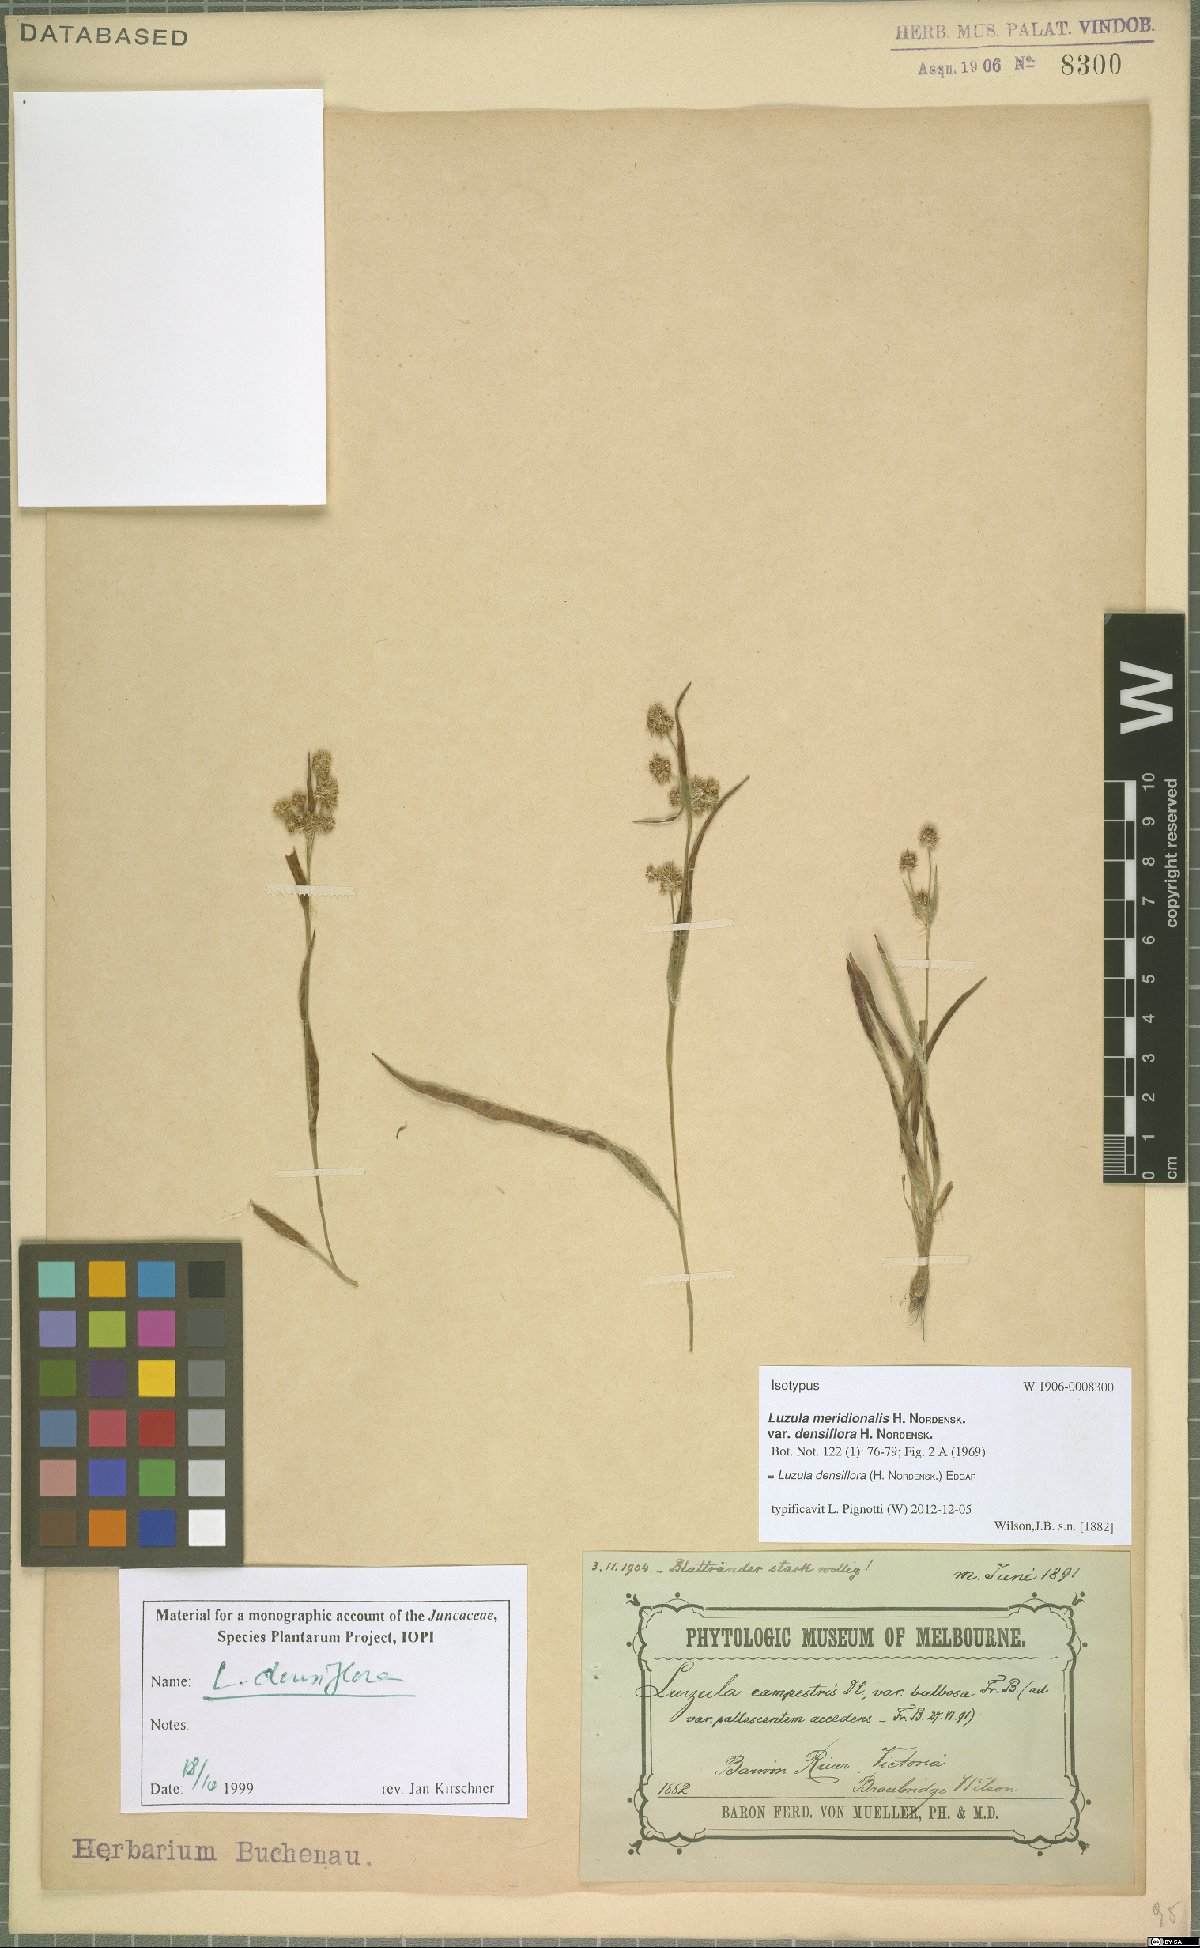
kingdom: Plantae
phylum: Tracheophyta
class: Liliopsida
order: Poales
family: Juncaceae
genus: Luzula
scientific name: Luzula densiflora
